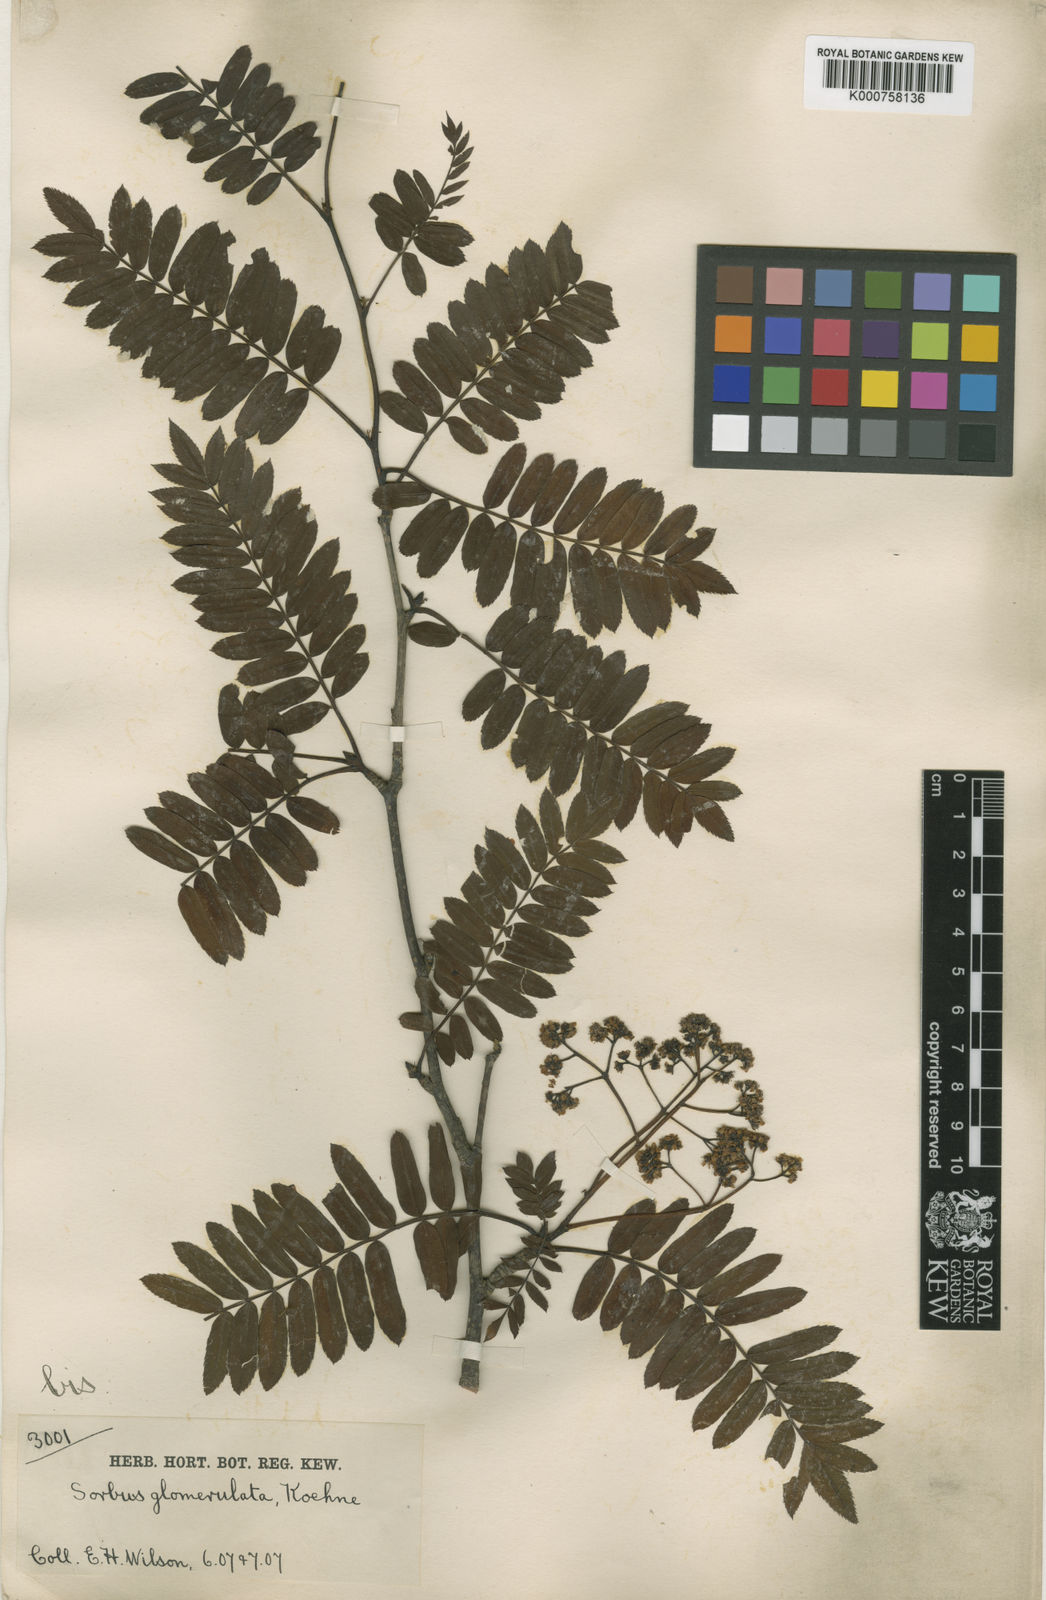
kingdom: Plantae
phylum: Tracheophyta
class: Magnoliopsida
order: Rosales
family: Rosaceae
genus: Sorbus
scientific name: Sorbus glomerulata
